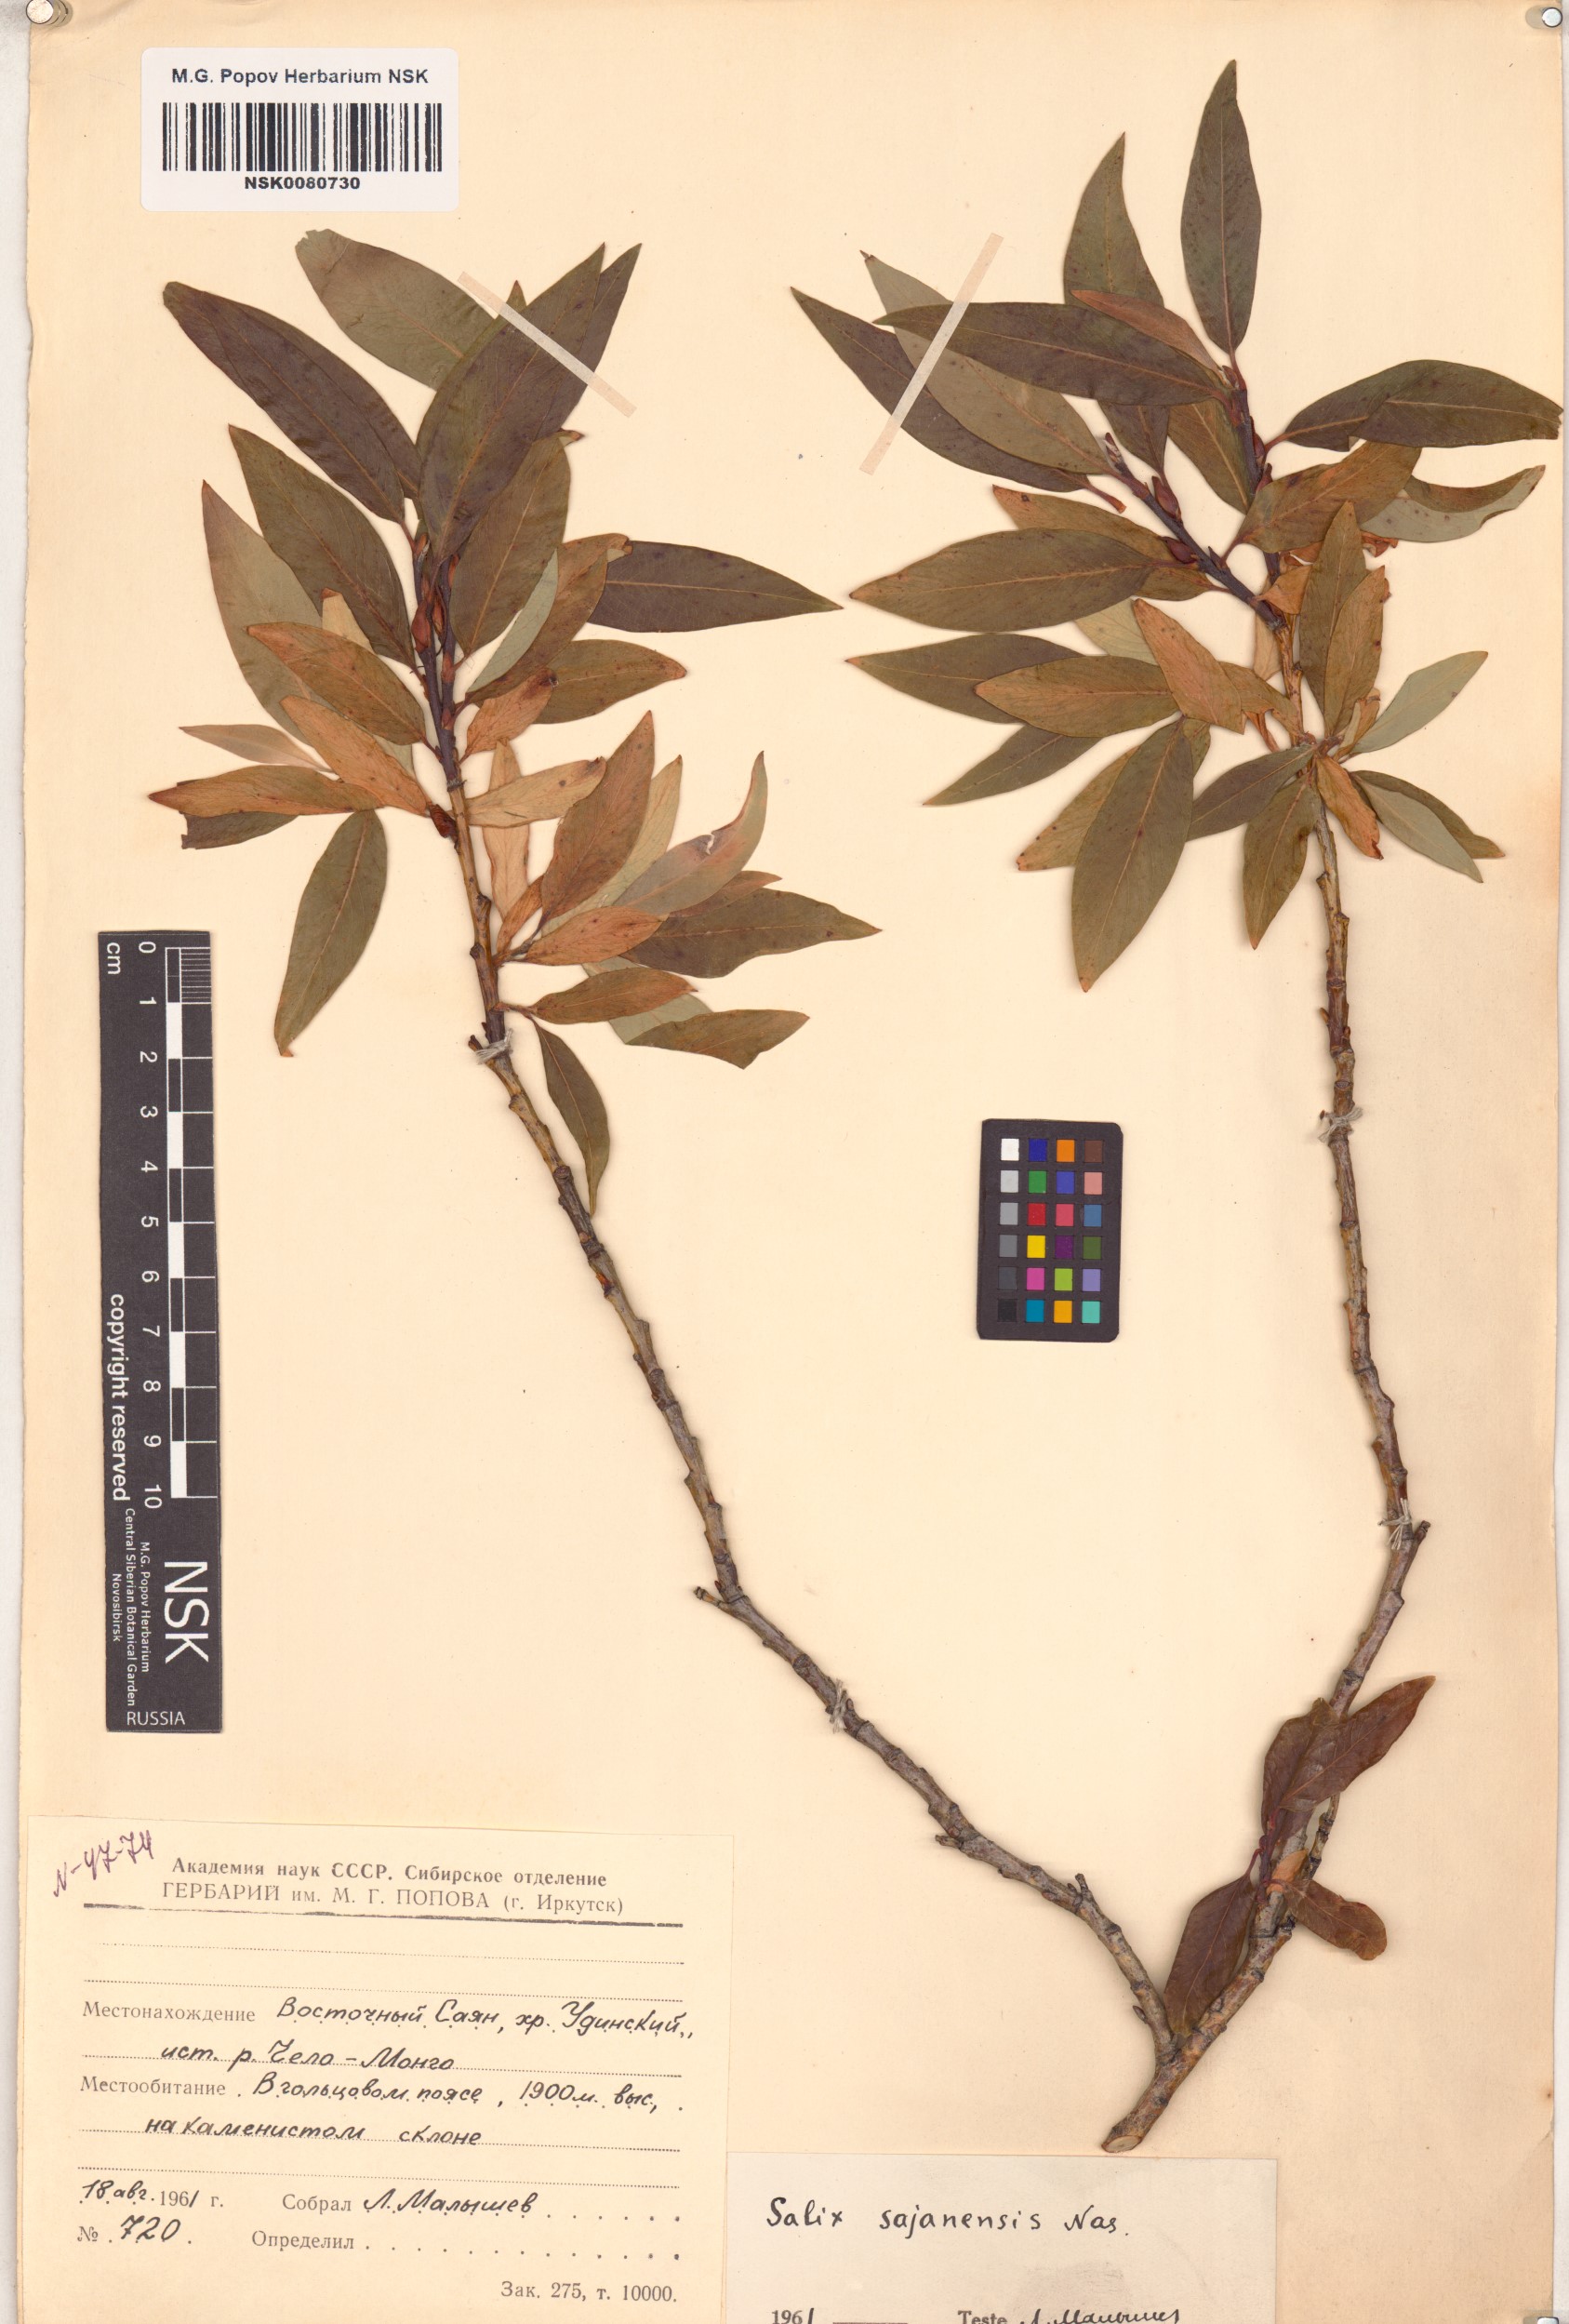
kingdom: Plantae
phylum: Tracheophyta
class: Magnoliopsida
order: Malpighiales
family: Salicaceae
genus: Salix
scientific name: Salix sajanensis
